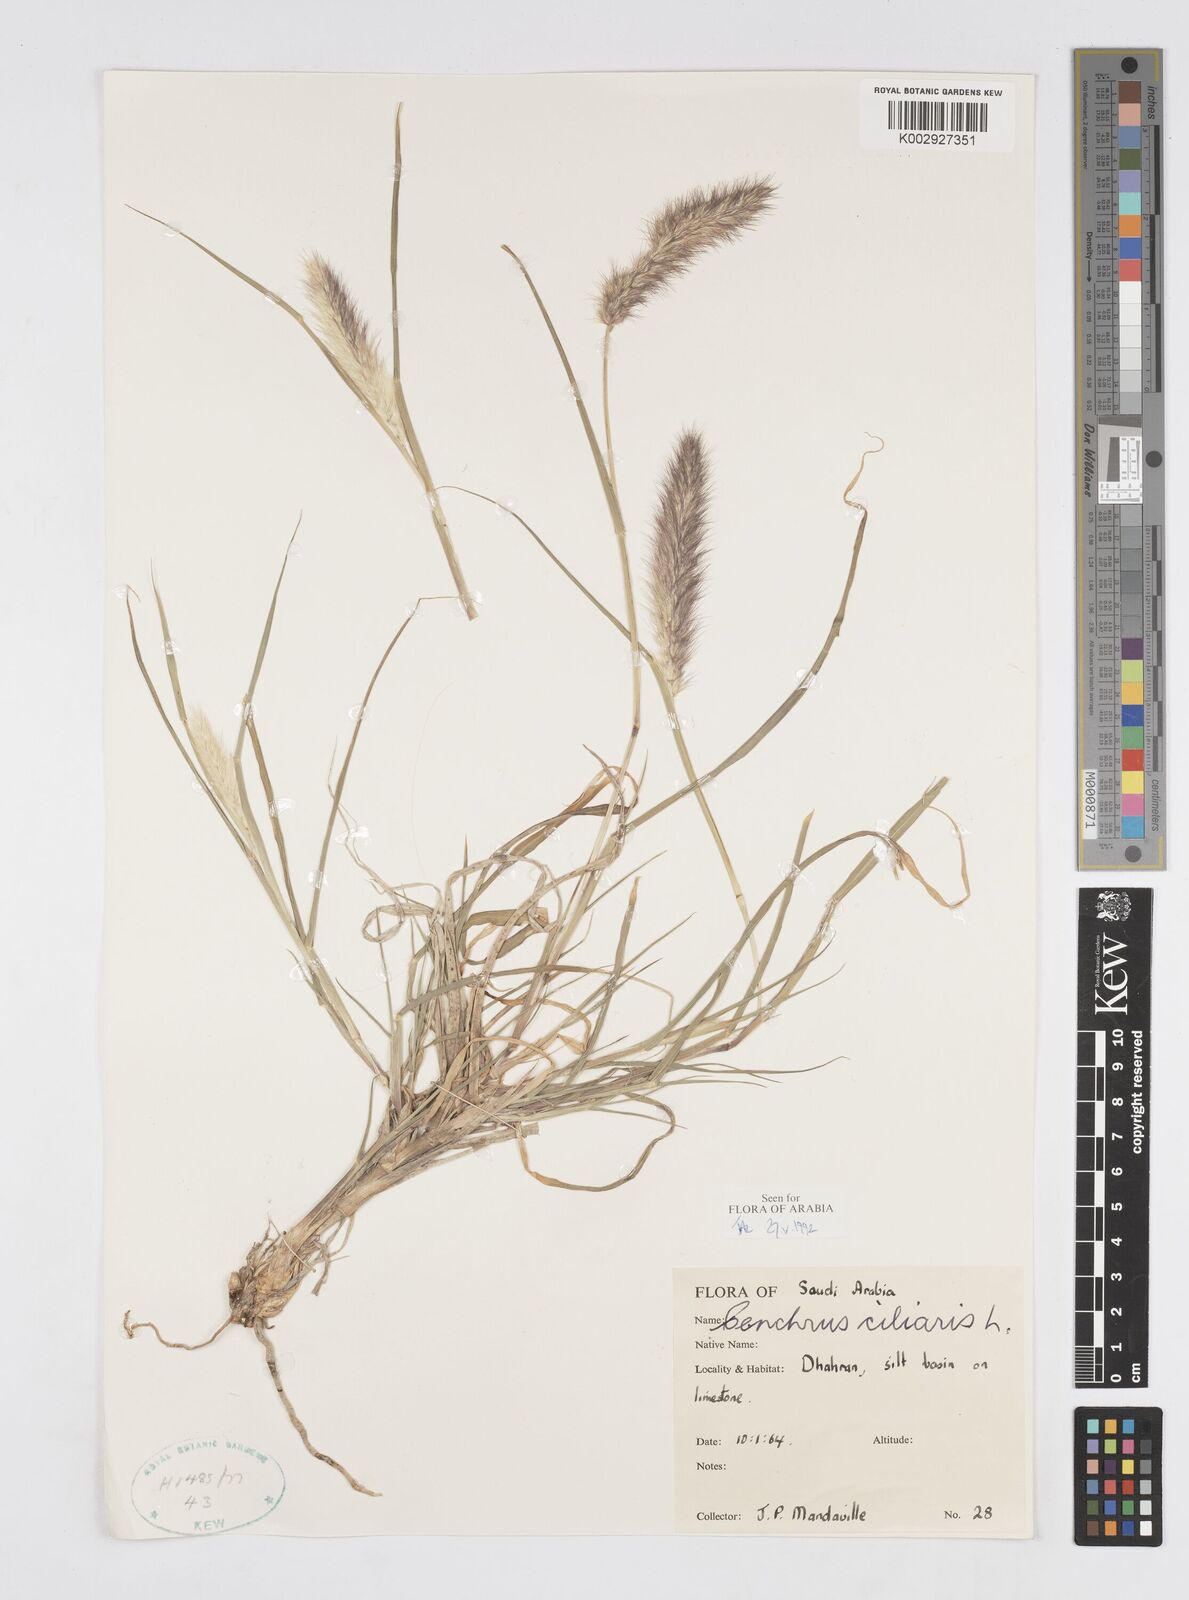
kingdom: Plantae
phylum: Tracheophyta
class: Liliopsida
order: Poales
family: Poaceae
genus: Cenchrus
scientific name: Cenchrus ciliaris
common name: Buffelgrass
